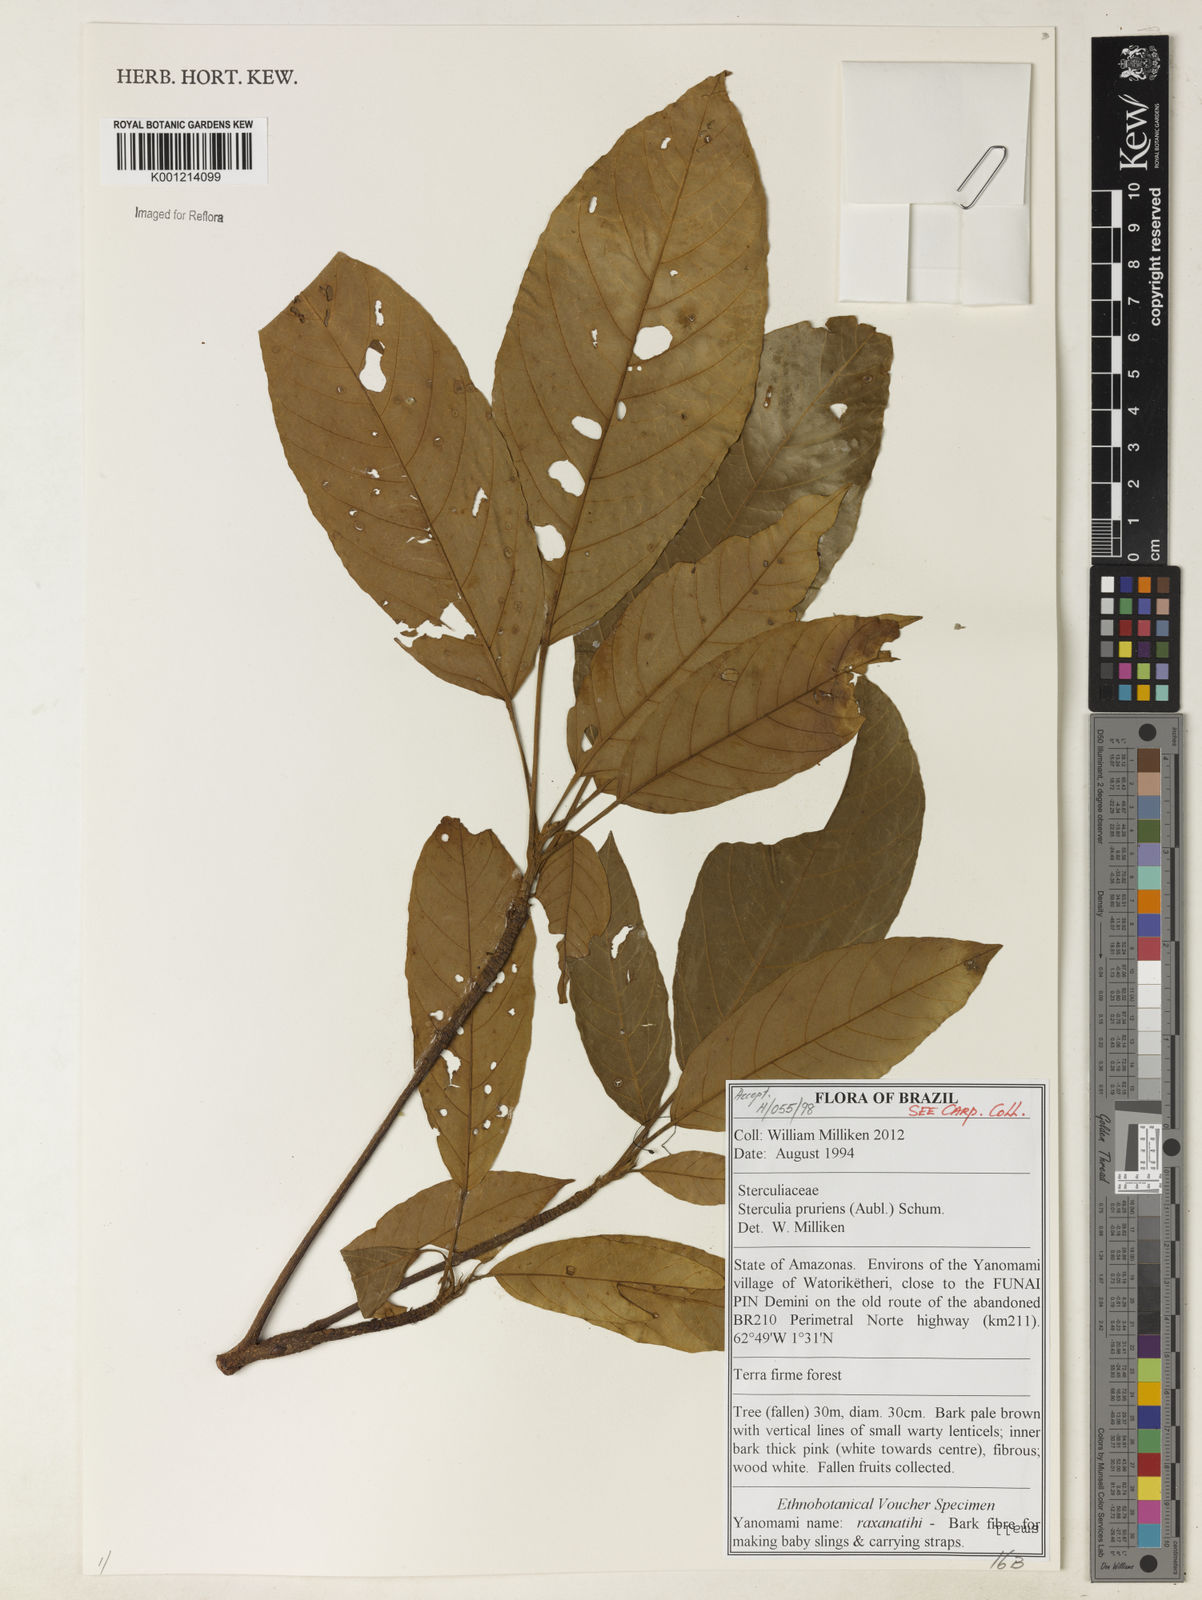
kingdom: Plantae
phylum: Tracheophyta
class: Magnoliopsida
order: Malvales
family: Malvaceae
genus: Sterculia
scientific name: Sterculia pruriens
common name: Grand mahot
